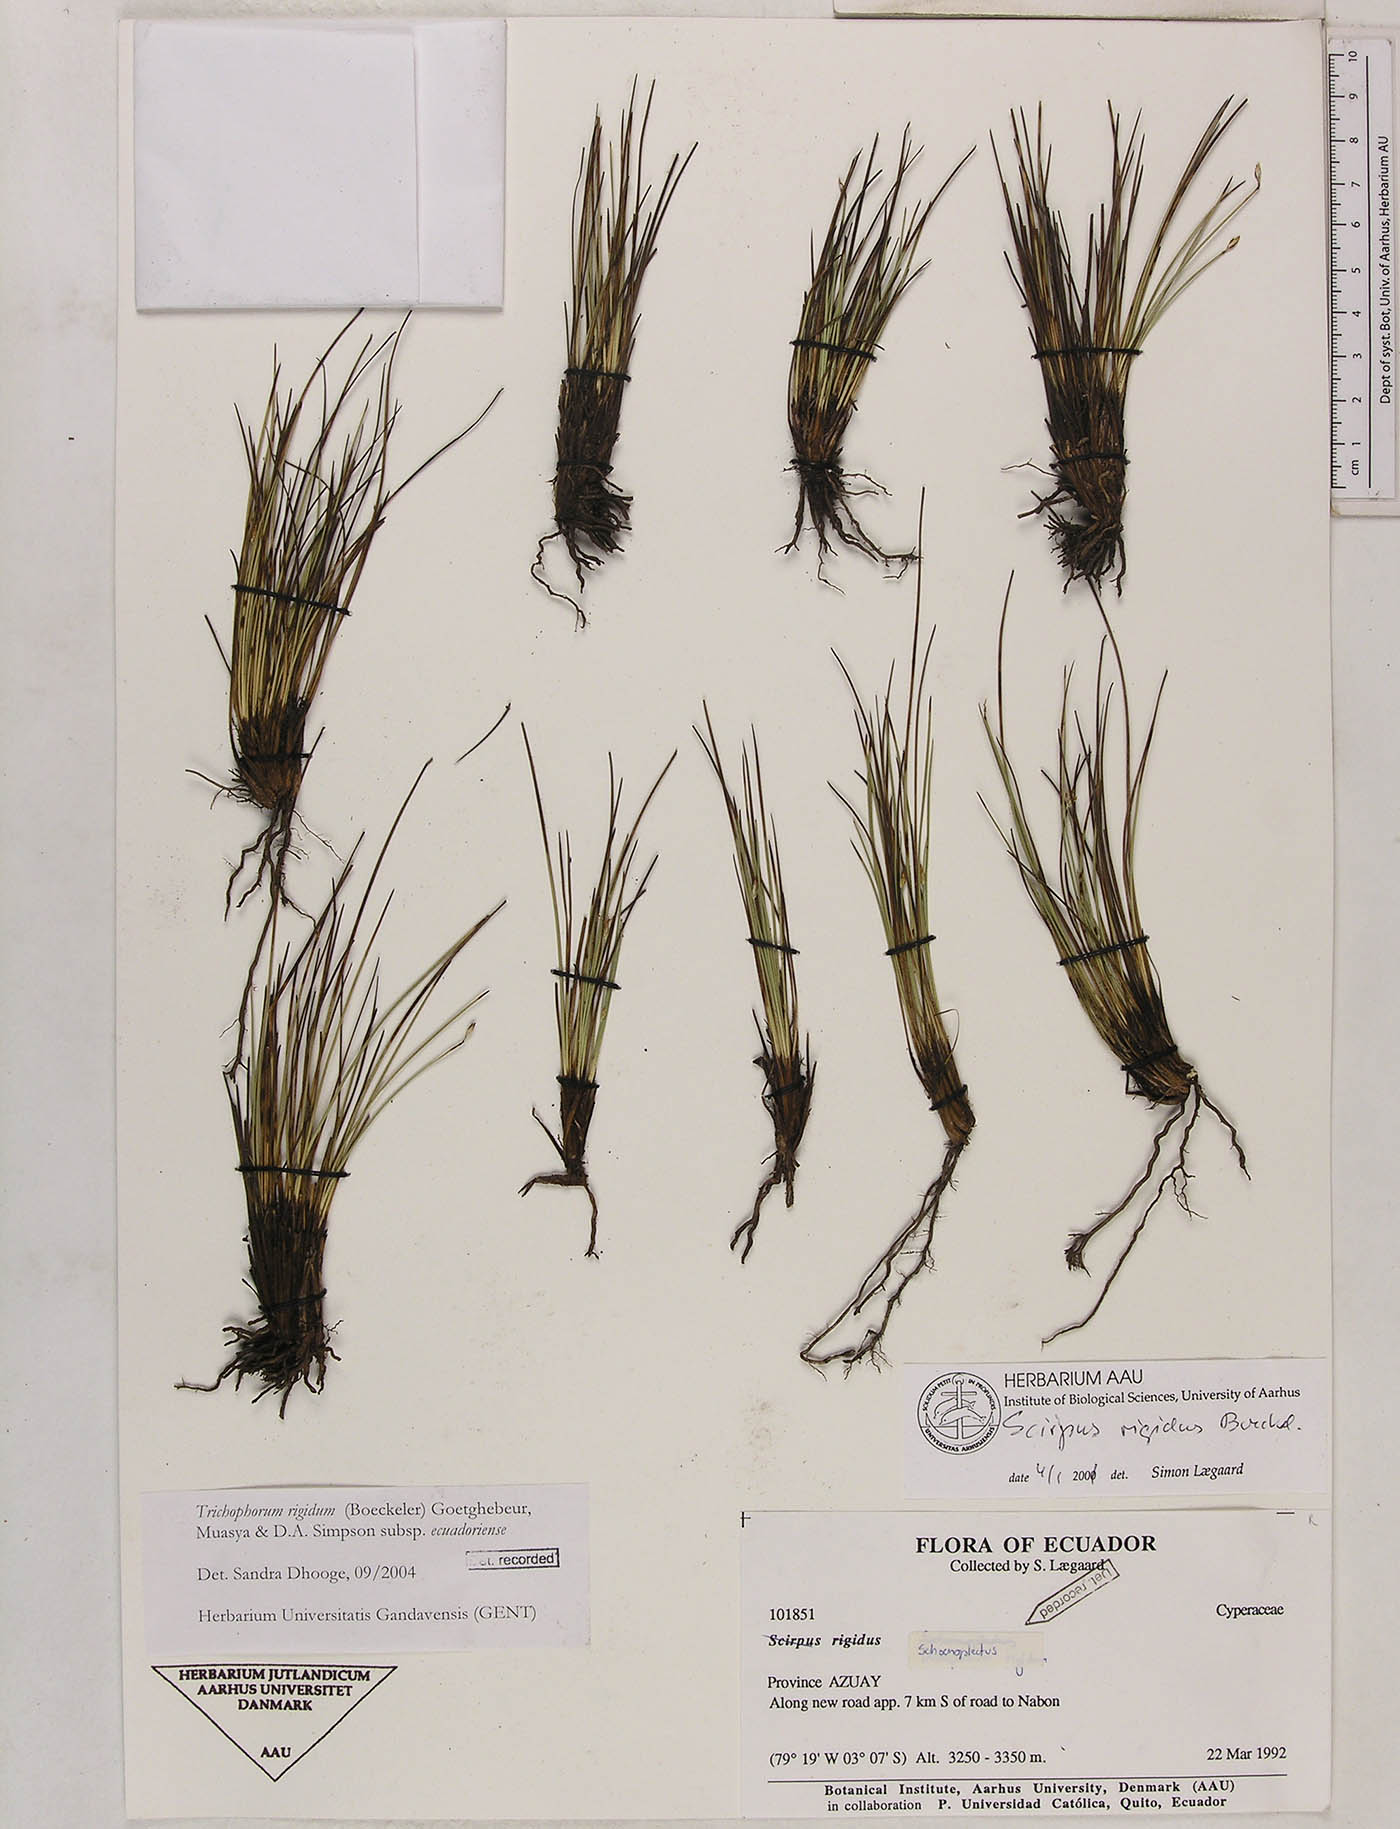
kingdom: Plantae
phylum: Tracheophyta
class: Liliopsida
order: Poales
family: Cyperaceae
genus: Trichophorum
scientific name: Trichophorum rigidum
